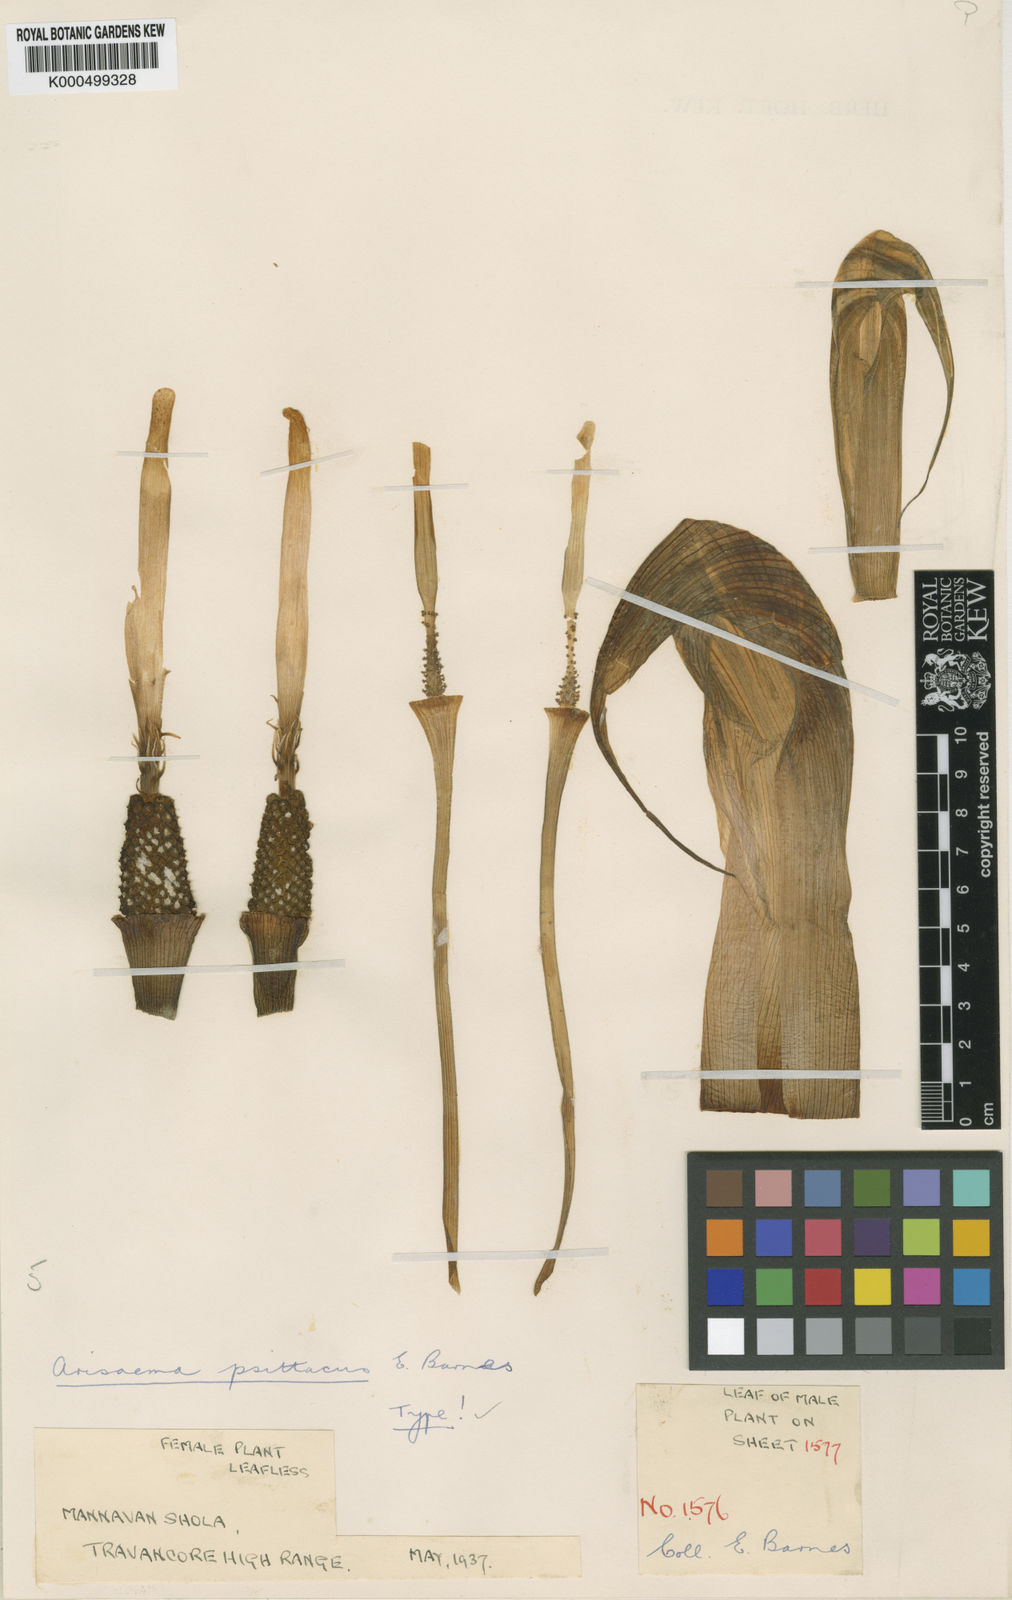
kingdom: Plantae
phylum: Tracheophyta
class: Liliopsida
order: Alismatales
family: Araceae
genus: Arisaema
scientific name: Arisaema psittacus
